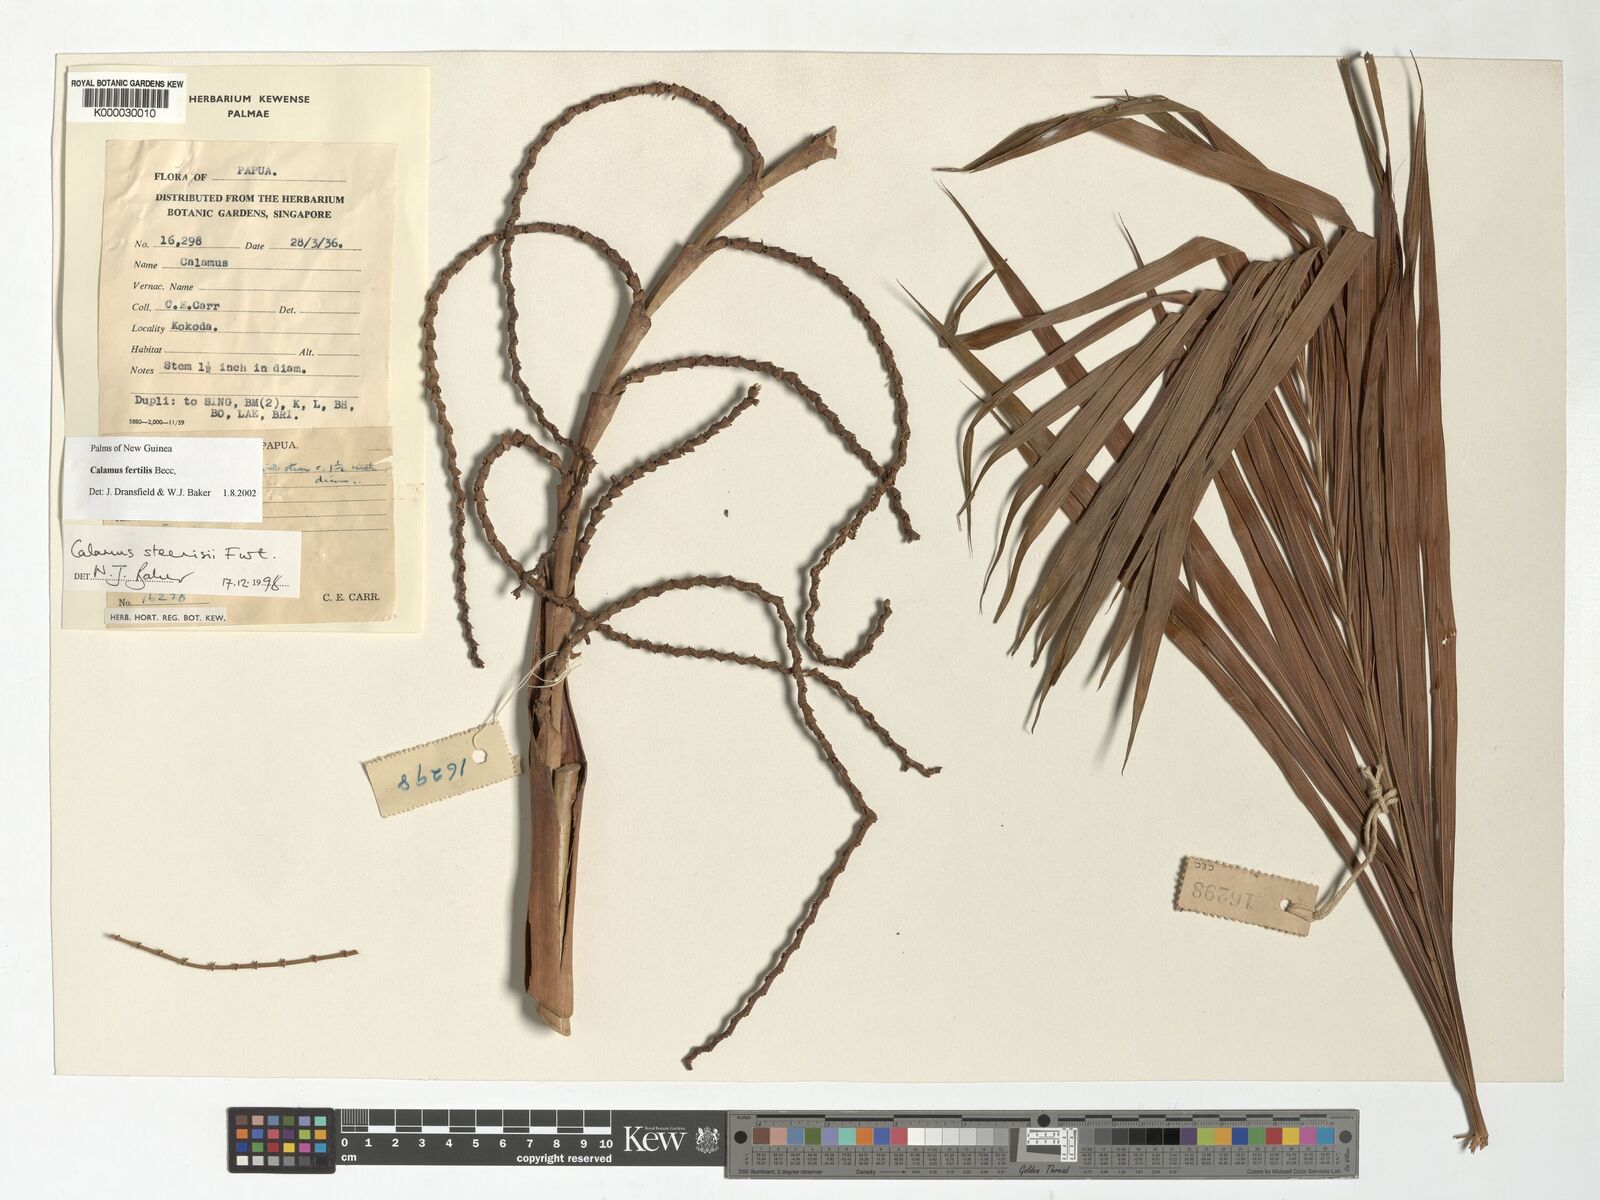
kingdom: Plantae
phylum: Tracheophyta
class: Liliopsida
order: Arecales
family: Arecaceae
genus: Calamus
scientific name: Calamus fertilis
